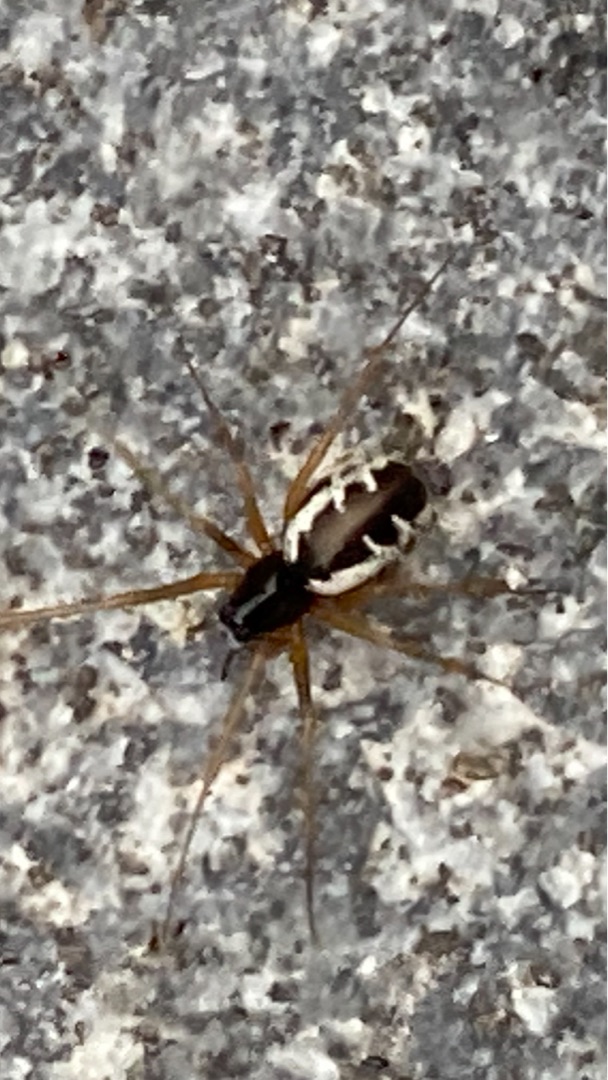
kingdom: Animalia
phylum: Arthropoda
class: Arachnida
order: Araneae
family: Linyphiidae
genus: Linyphia
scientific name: Linyphia hortensis
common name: Skovbaldakinspinder
